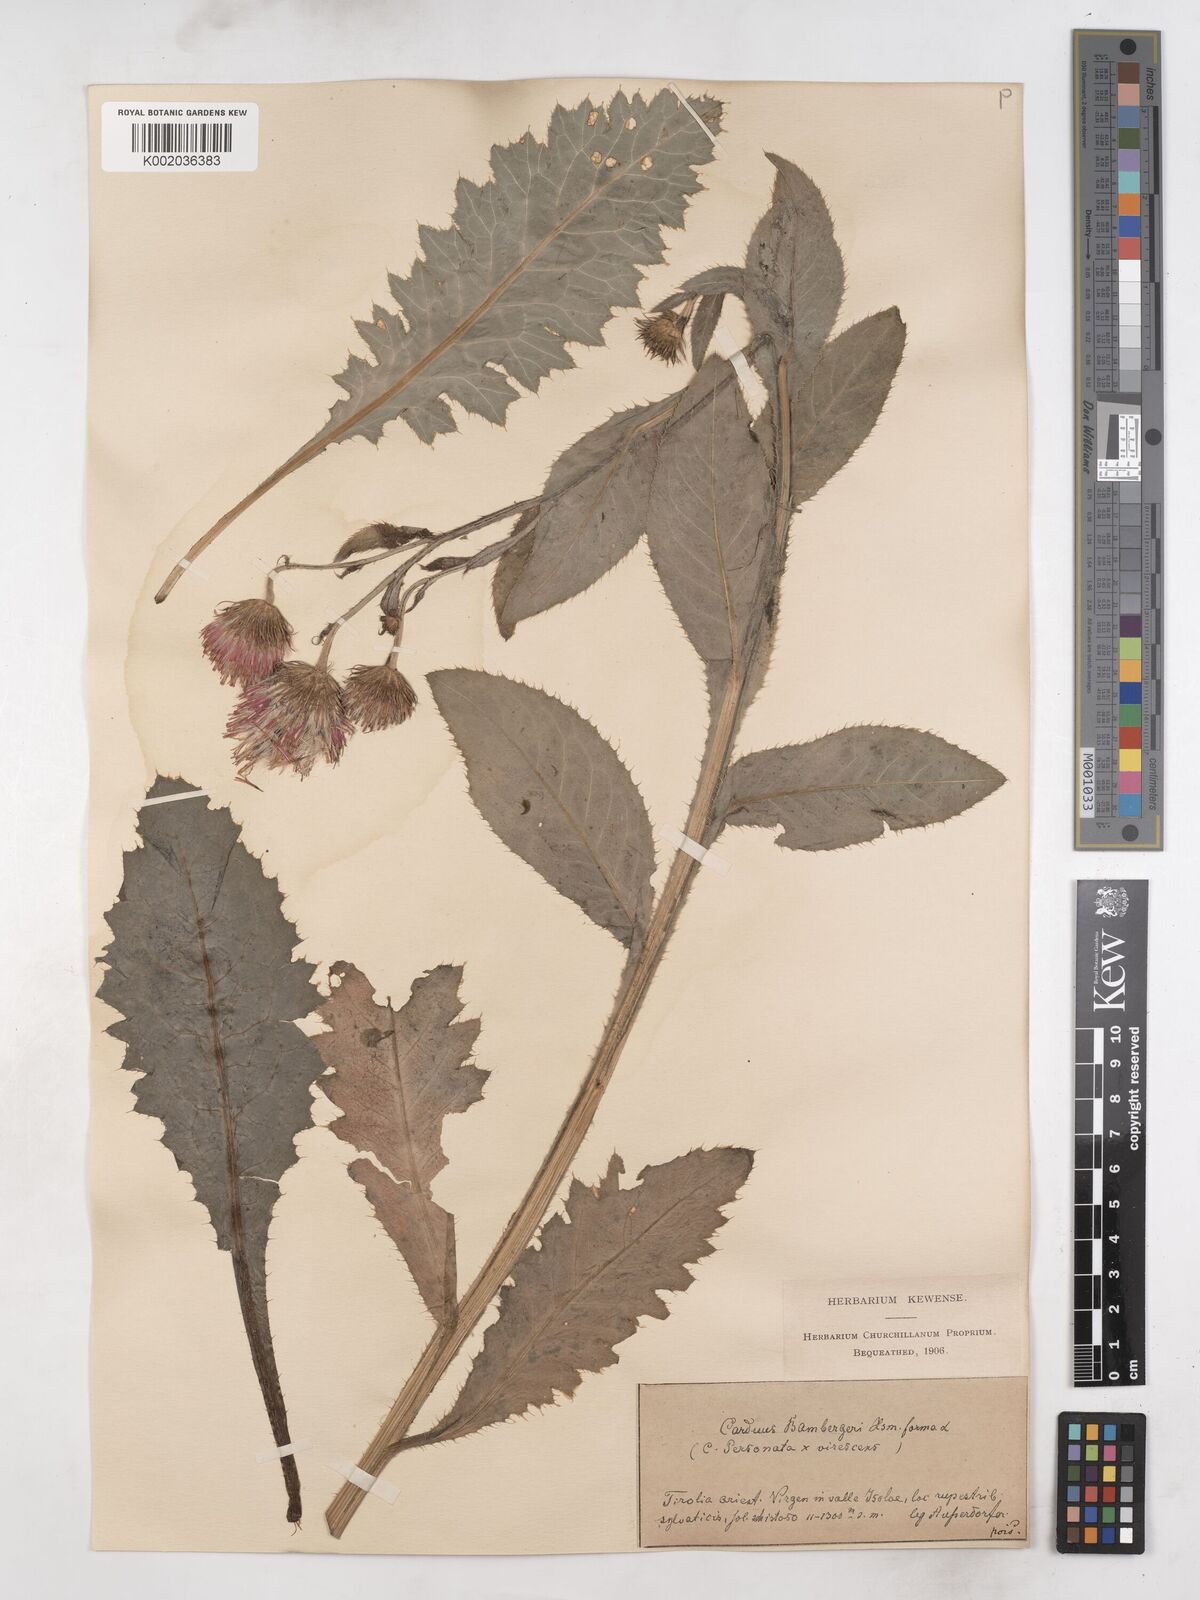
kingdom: Plantae
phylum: Tracheophyta
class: Magnoliopsida
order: Asterales
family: Asteraceae
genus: Carduus
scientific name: Carduus personata
